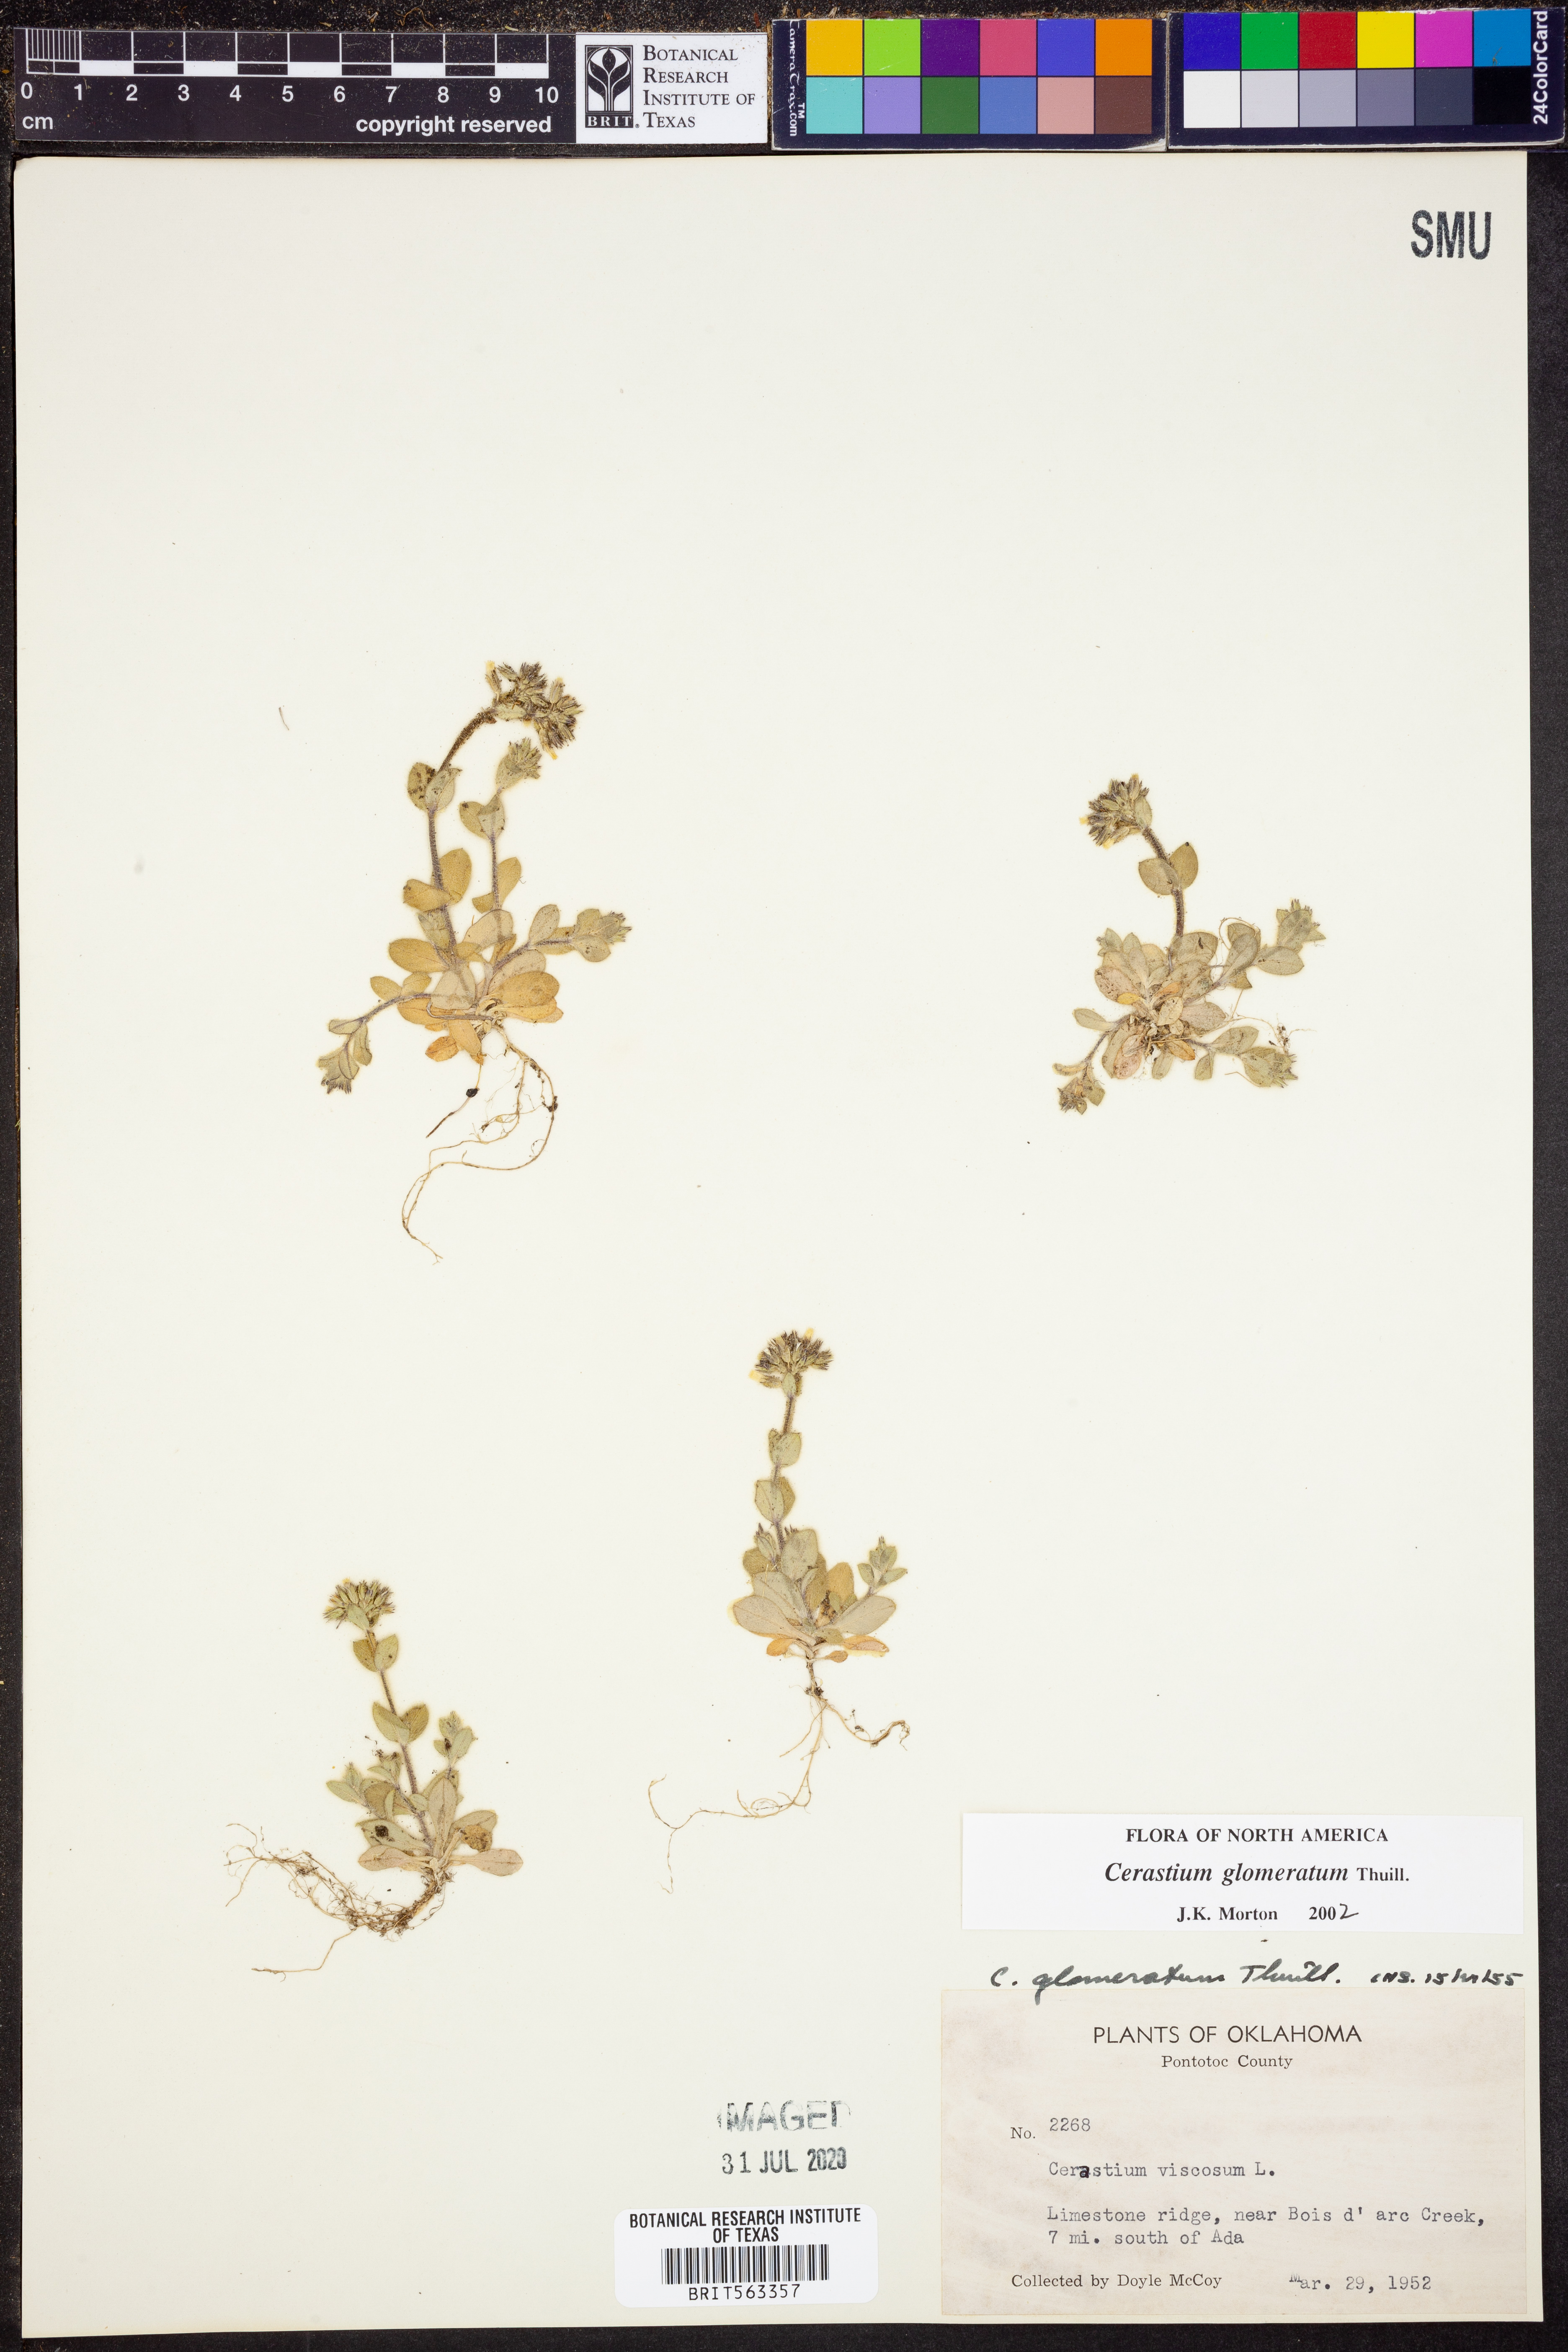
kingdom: Plantae
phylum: Tracheophyta
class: Magnoliopsida
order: Caryophyllales
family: Caryophyllaceae
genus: Cerastium
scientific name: Cerastium glomeratum
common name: Sticky chickweed
